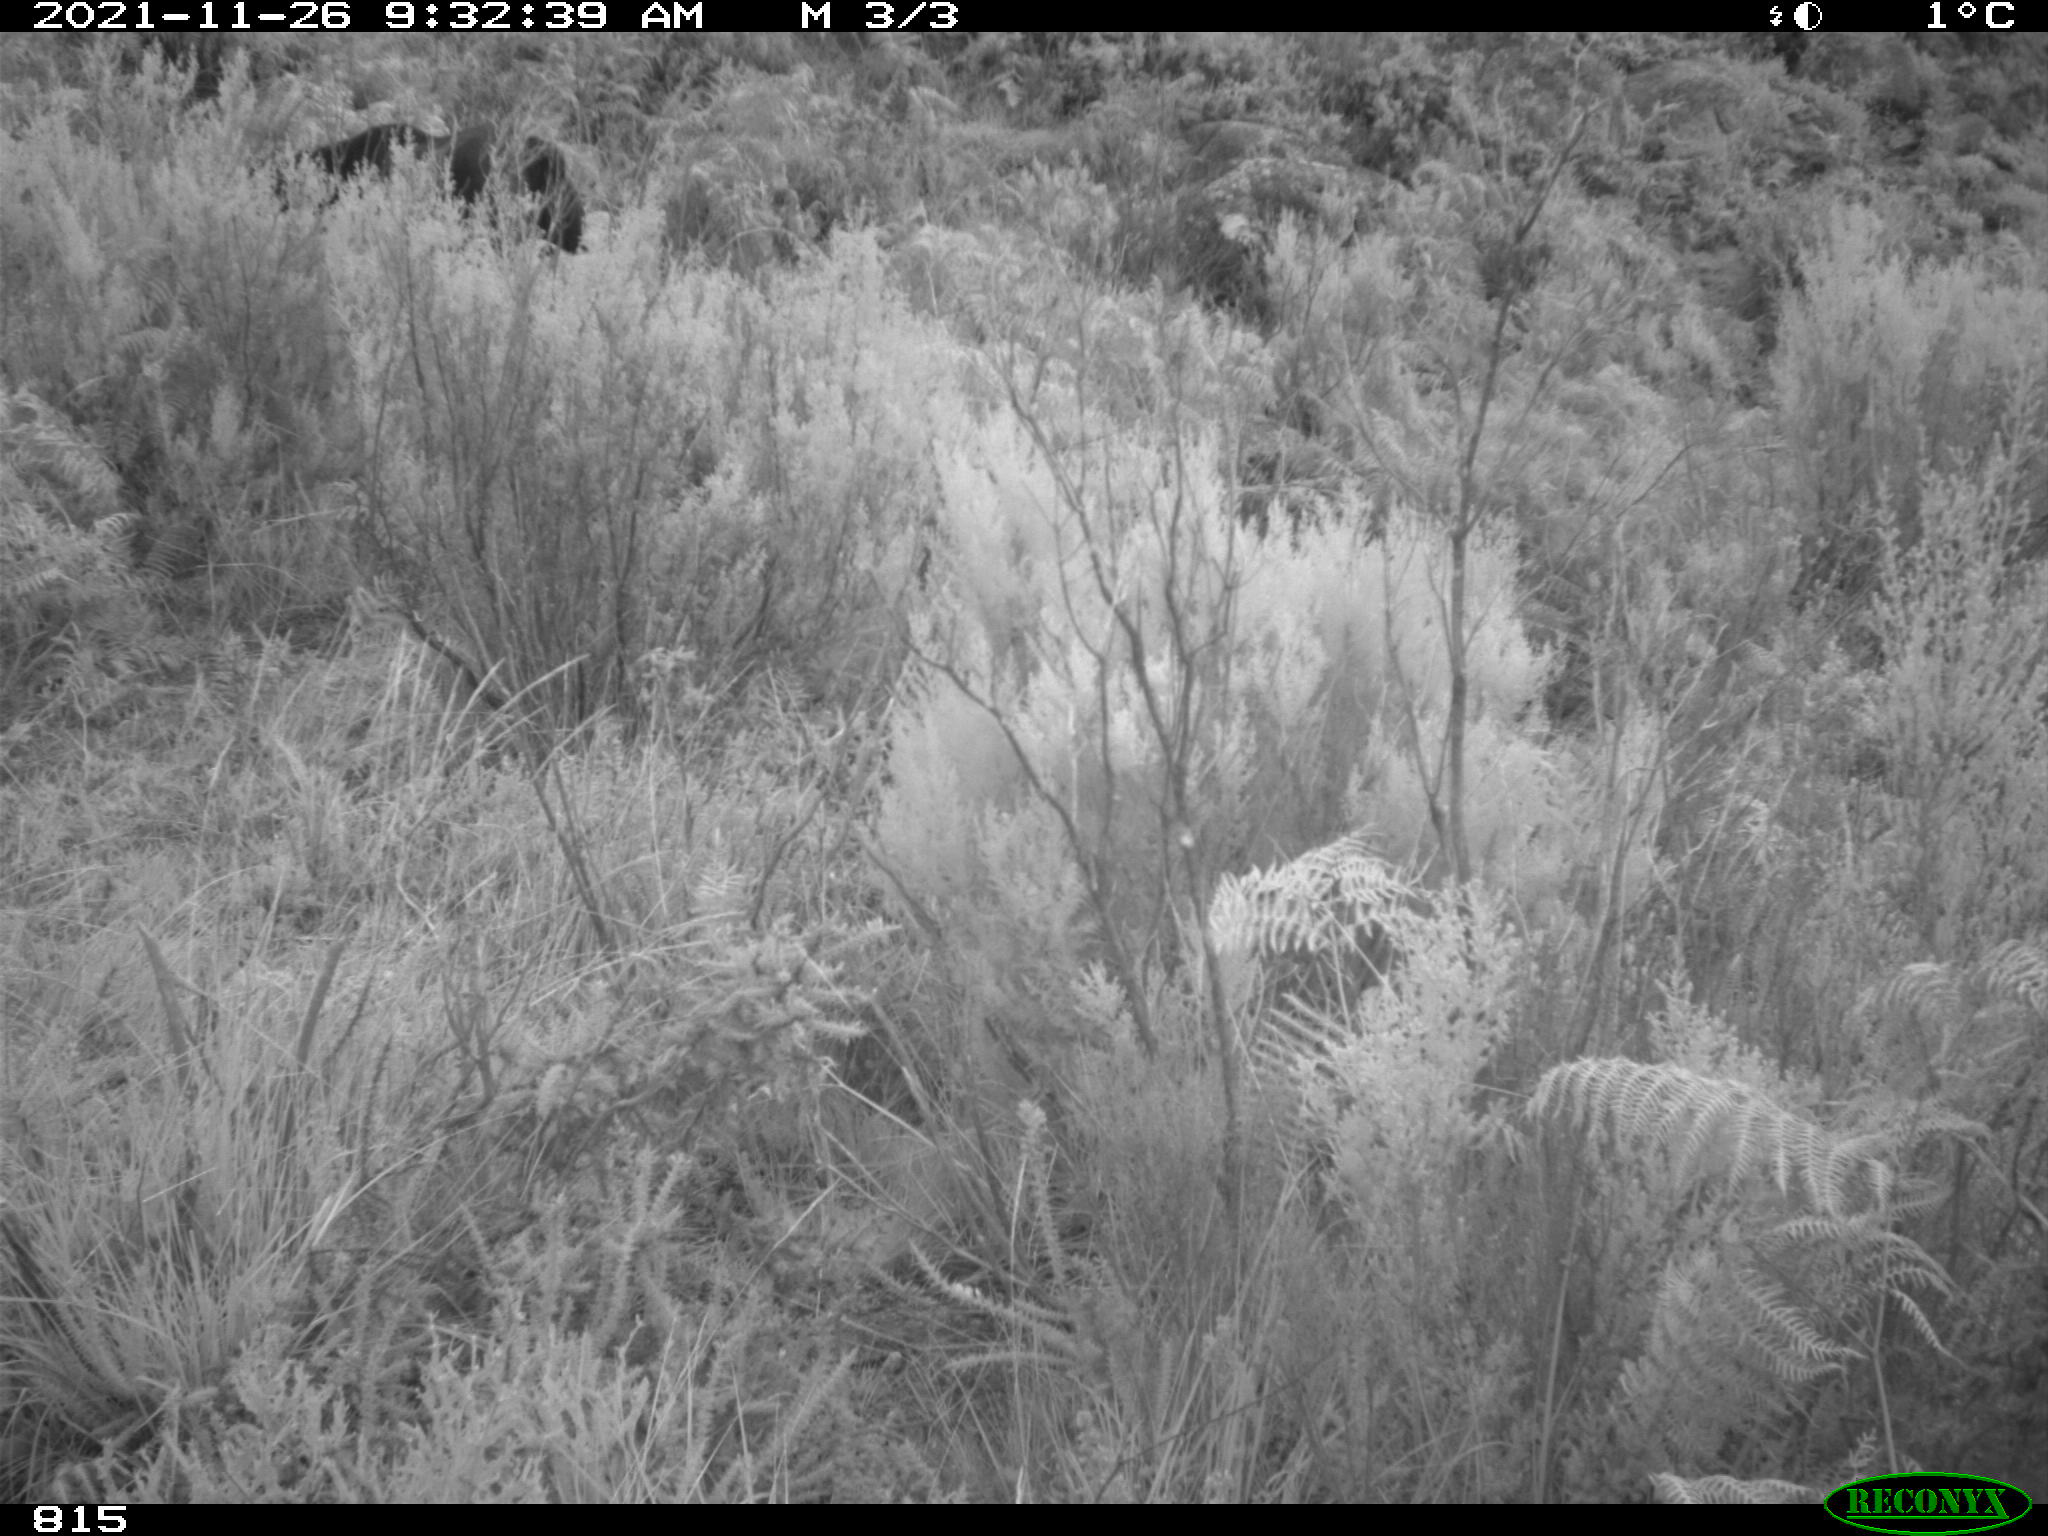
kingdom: Animalia
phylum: Chordata
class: Mammalia
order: Perissodactyla
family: Equidae
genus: Equus
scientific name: Equus caballus
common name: Horse
